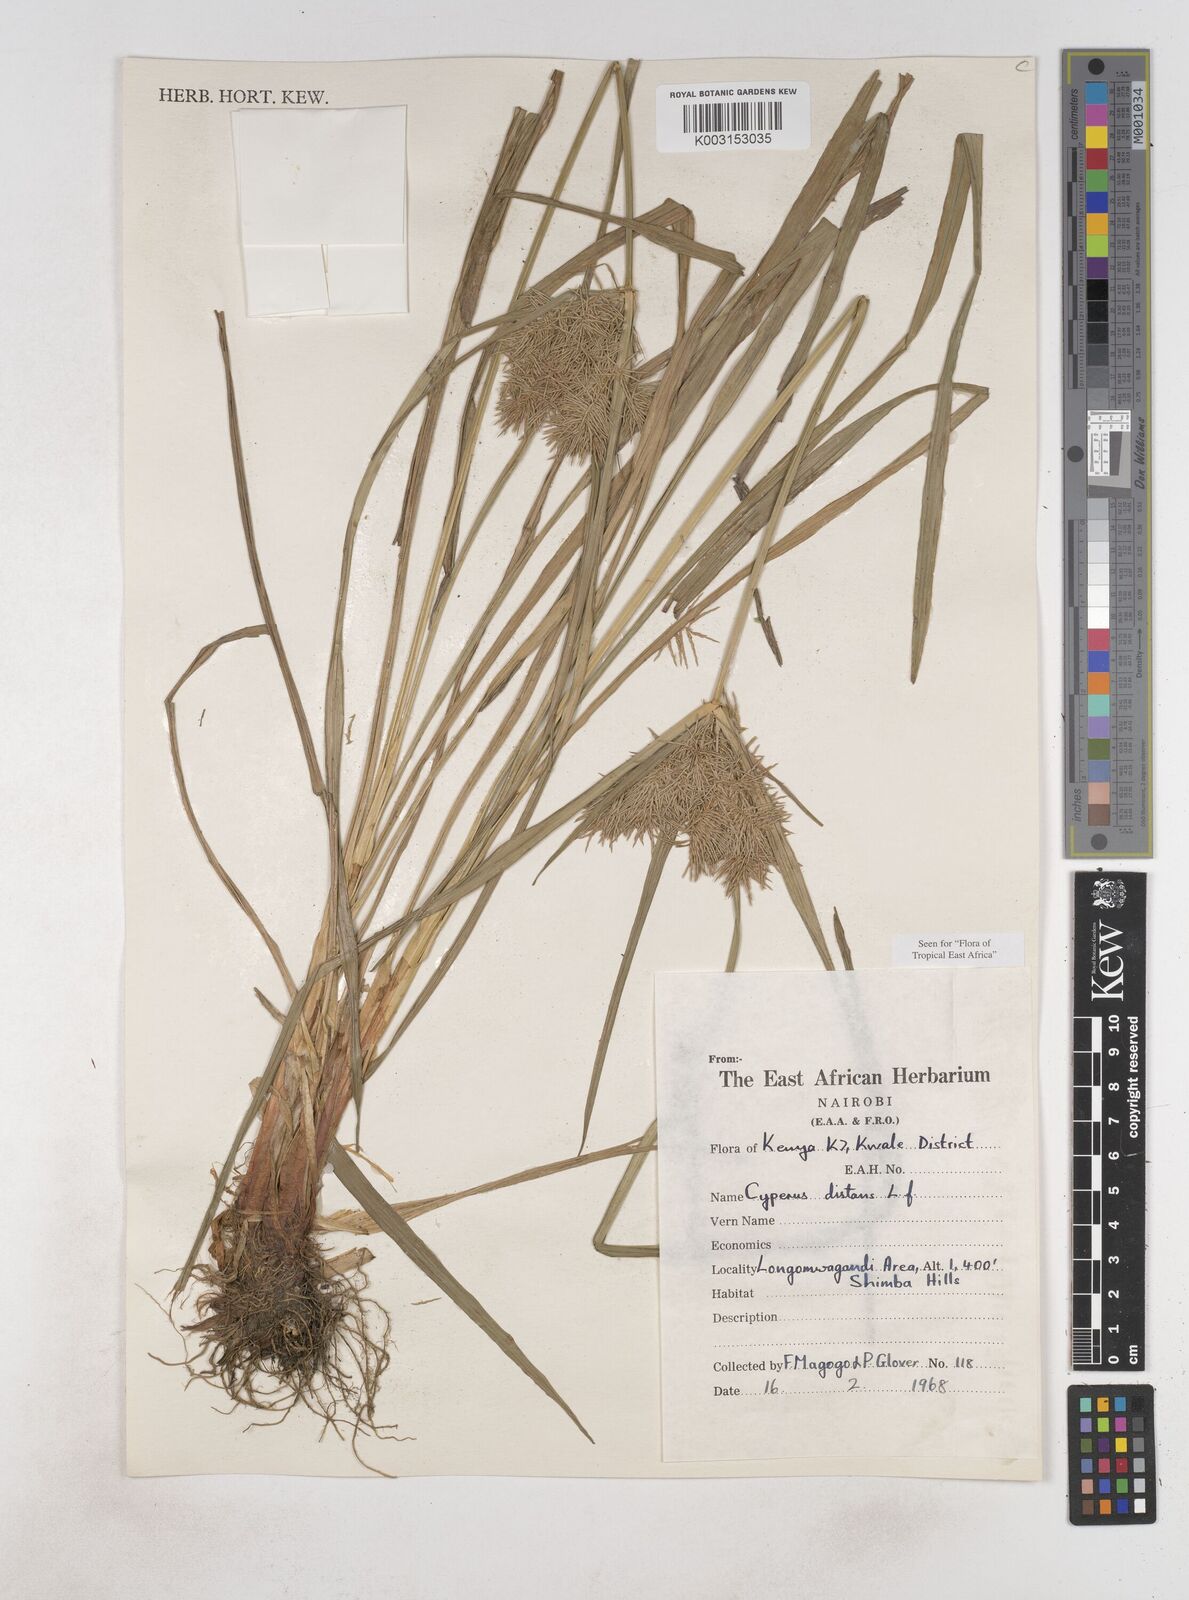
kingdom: Plantae
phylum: Tracheophyta
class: Liliopsida
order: Poales
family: Cyperaceae
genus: Cyperus
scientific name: Cyperus distans
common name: Slender cyperus
